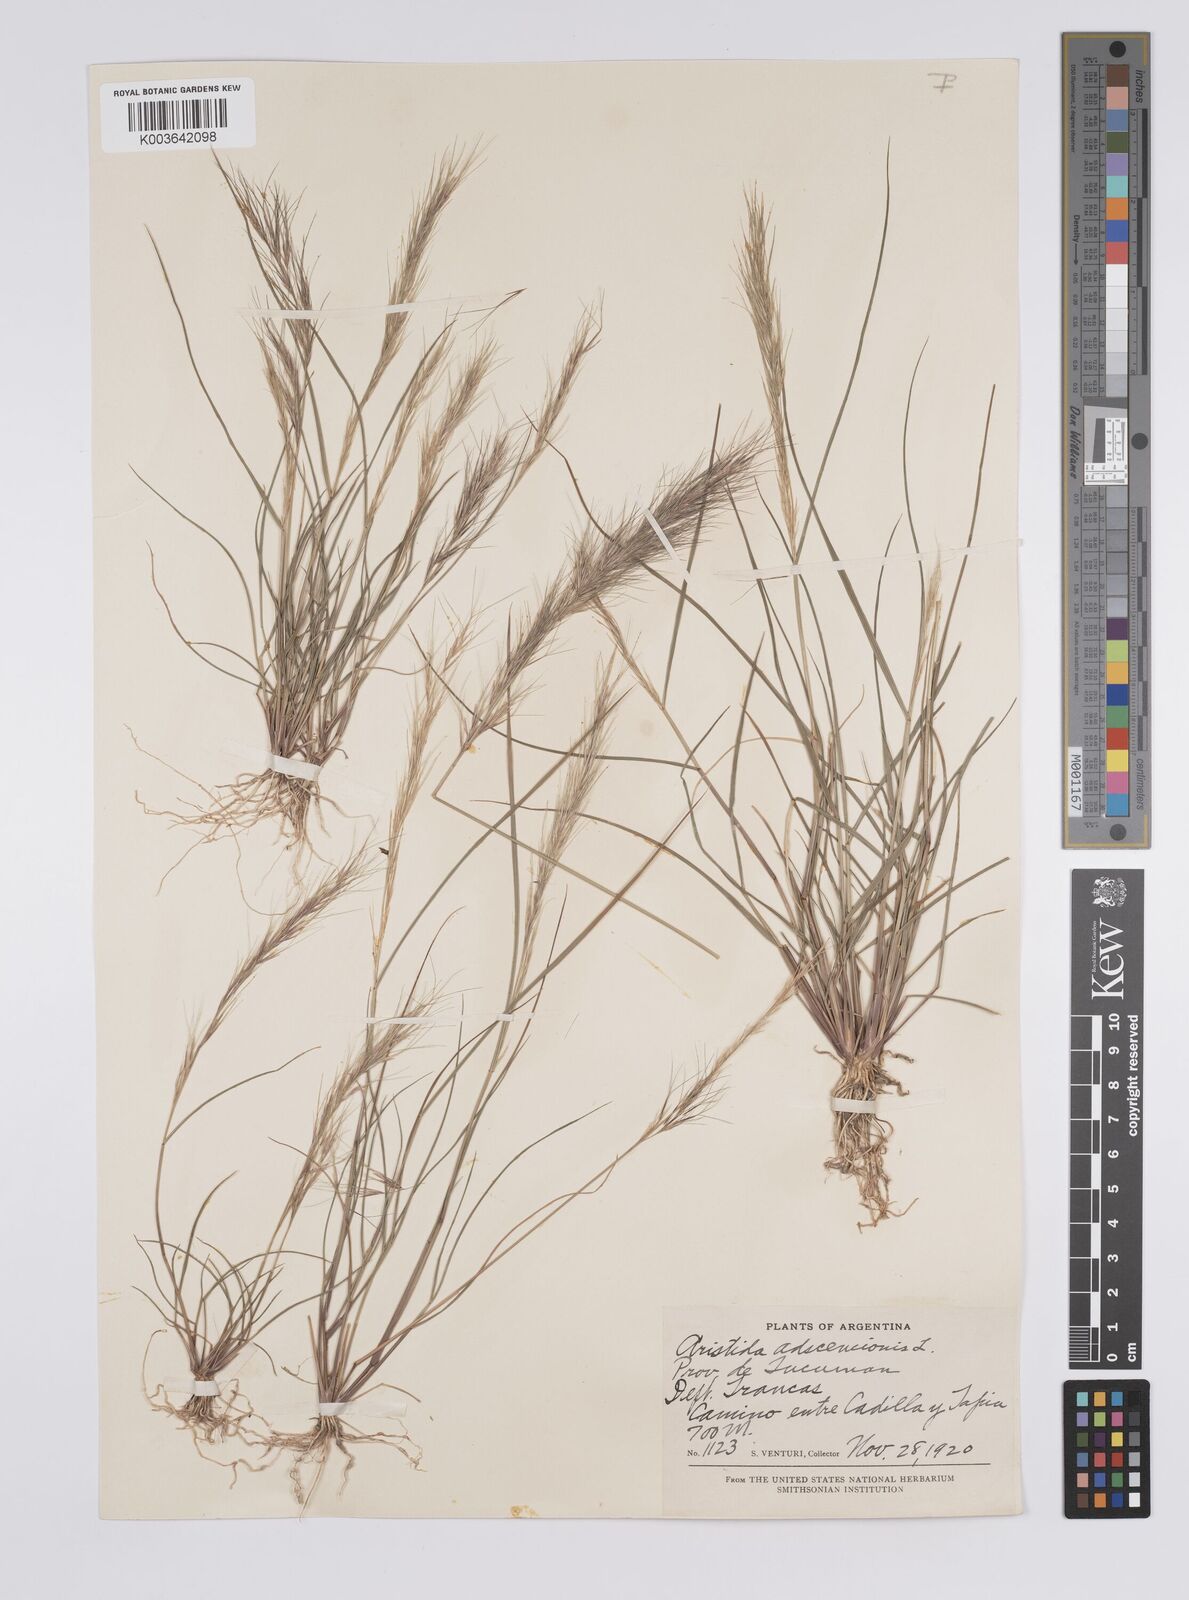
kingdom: Plantae
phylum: Tracheophyta
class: Liliopsida
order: Poales
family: Poaceae
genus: Aristida
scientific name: Aristida adscensionis
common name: Sixweeks threeawn
